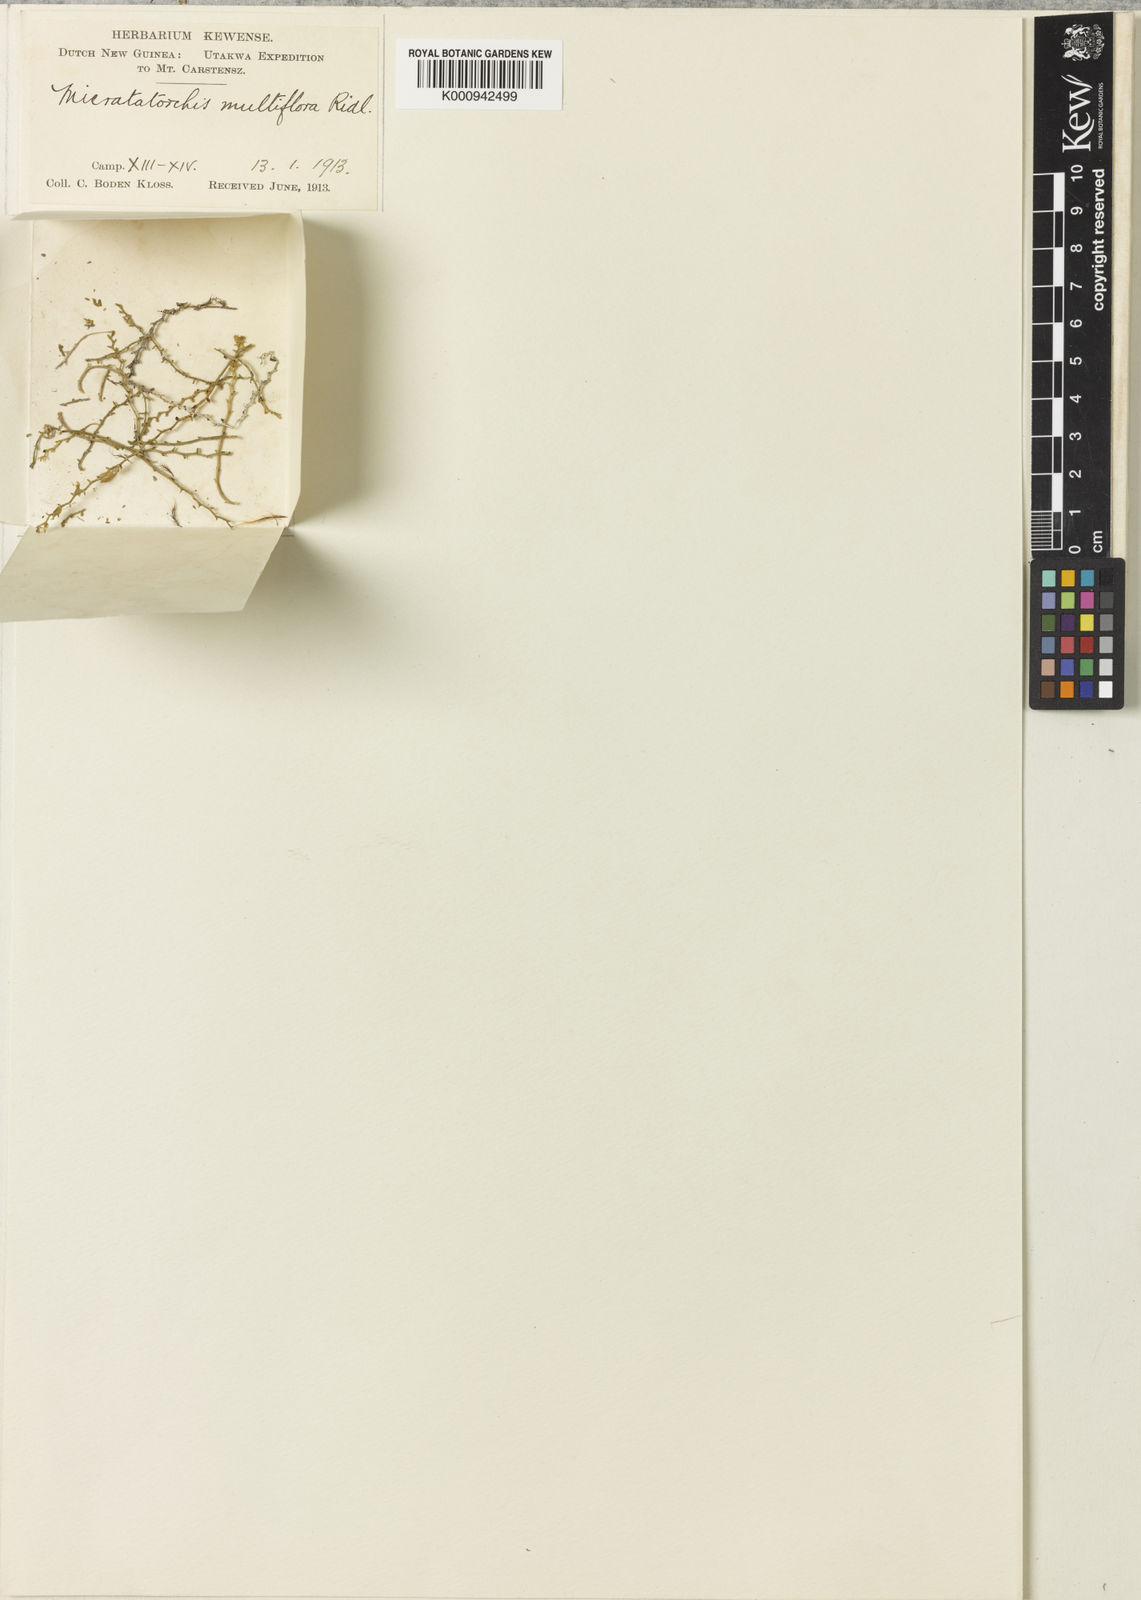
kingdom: Plantae
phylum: Tracheophyta
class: Liliopsida
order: Asparagales
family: Orchidaceae
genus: Taeniophyllum
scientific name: Taeniophyllum multiflorum
